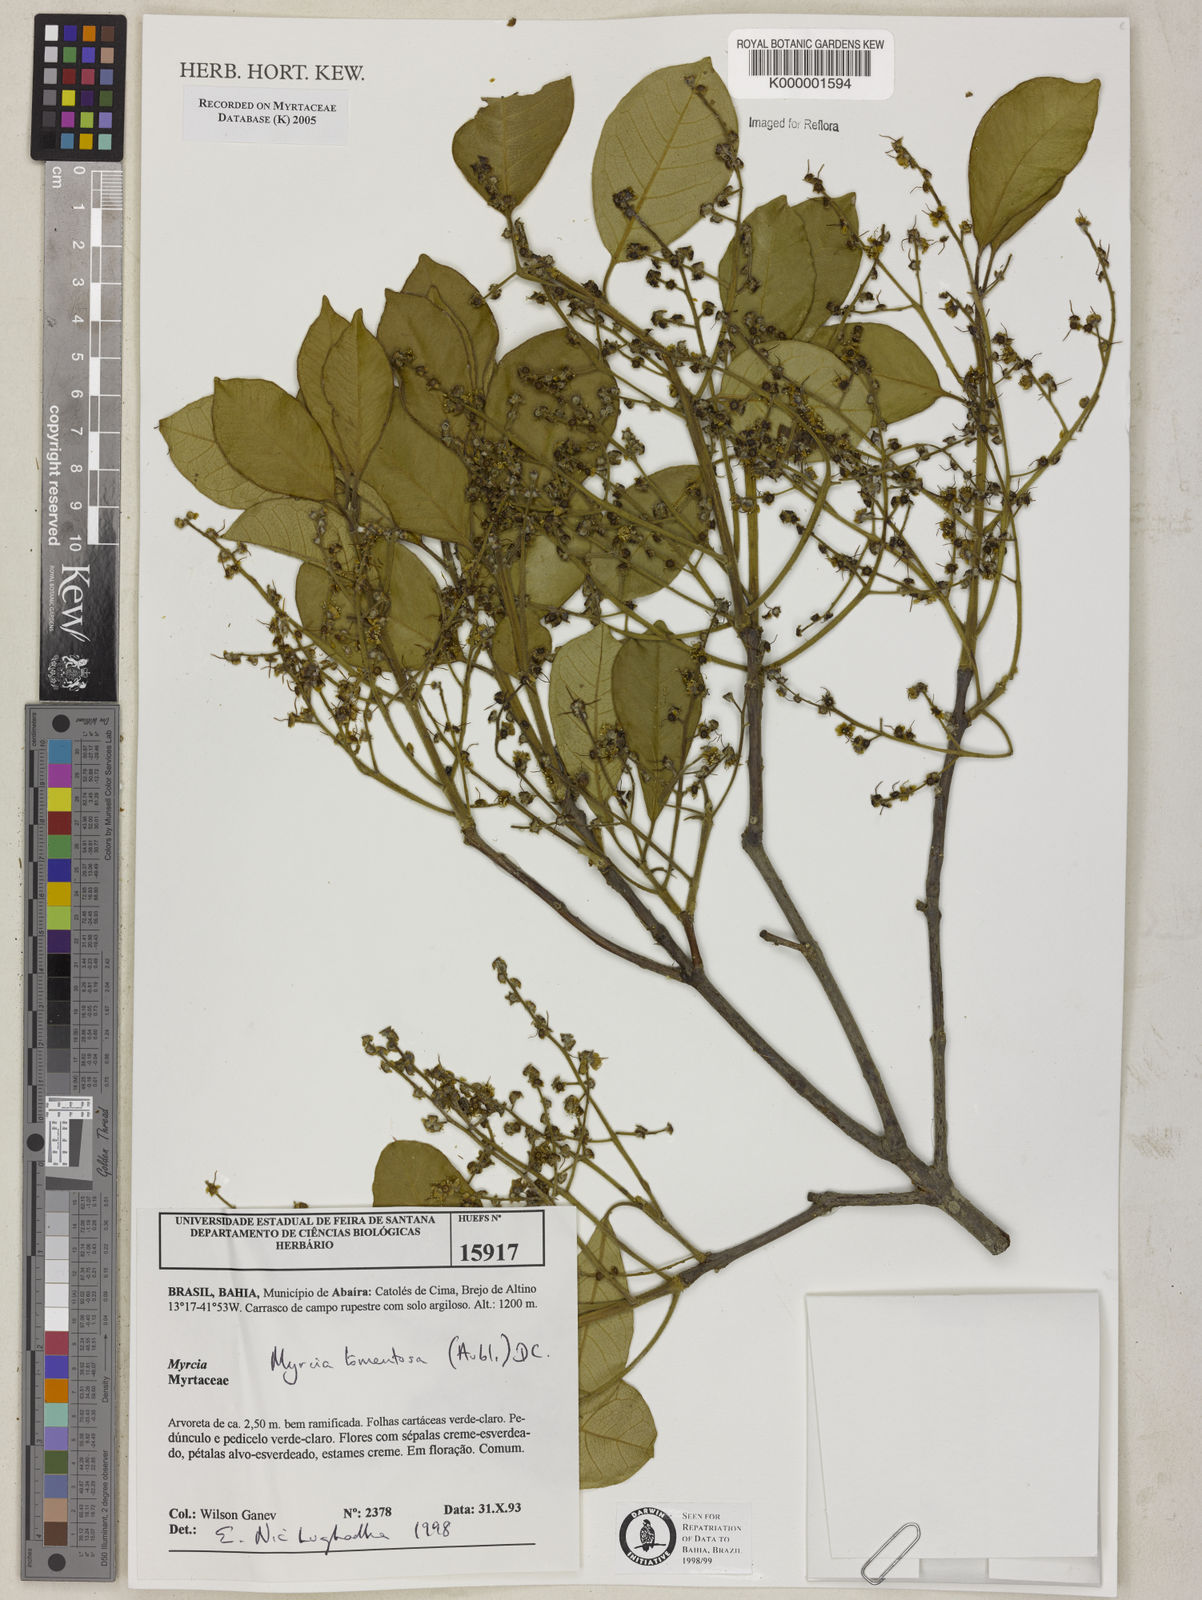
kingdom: Plantae
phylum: Tracheophyta
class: Magnoliopsida
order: Myrtales
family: Myrtaceae
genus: Myrcia
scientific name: Myrcia tomentosa
